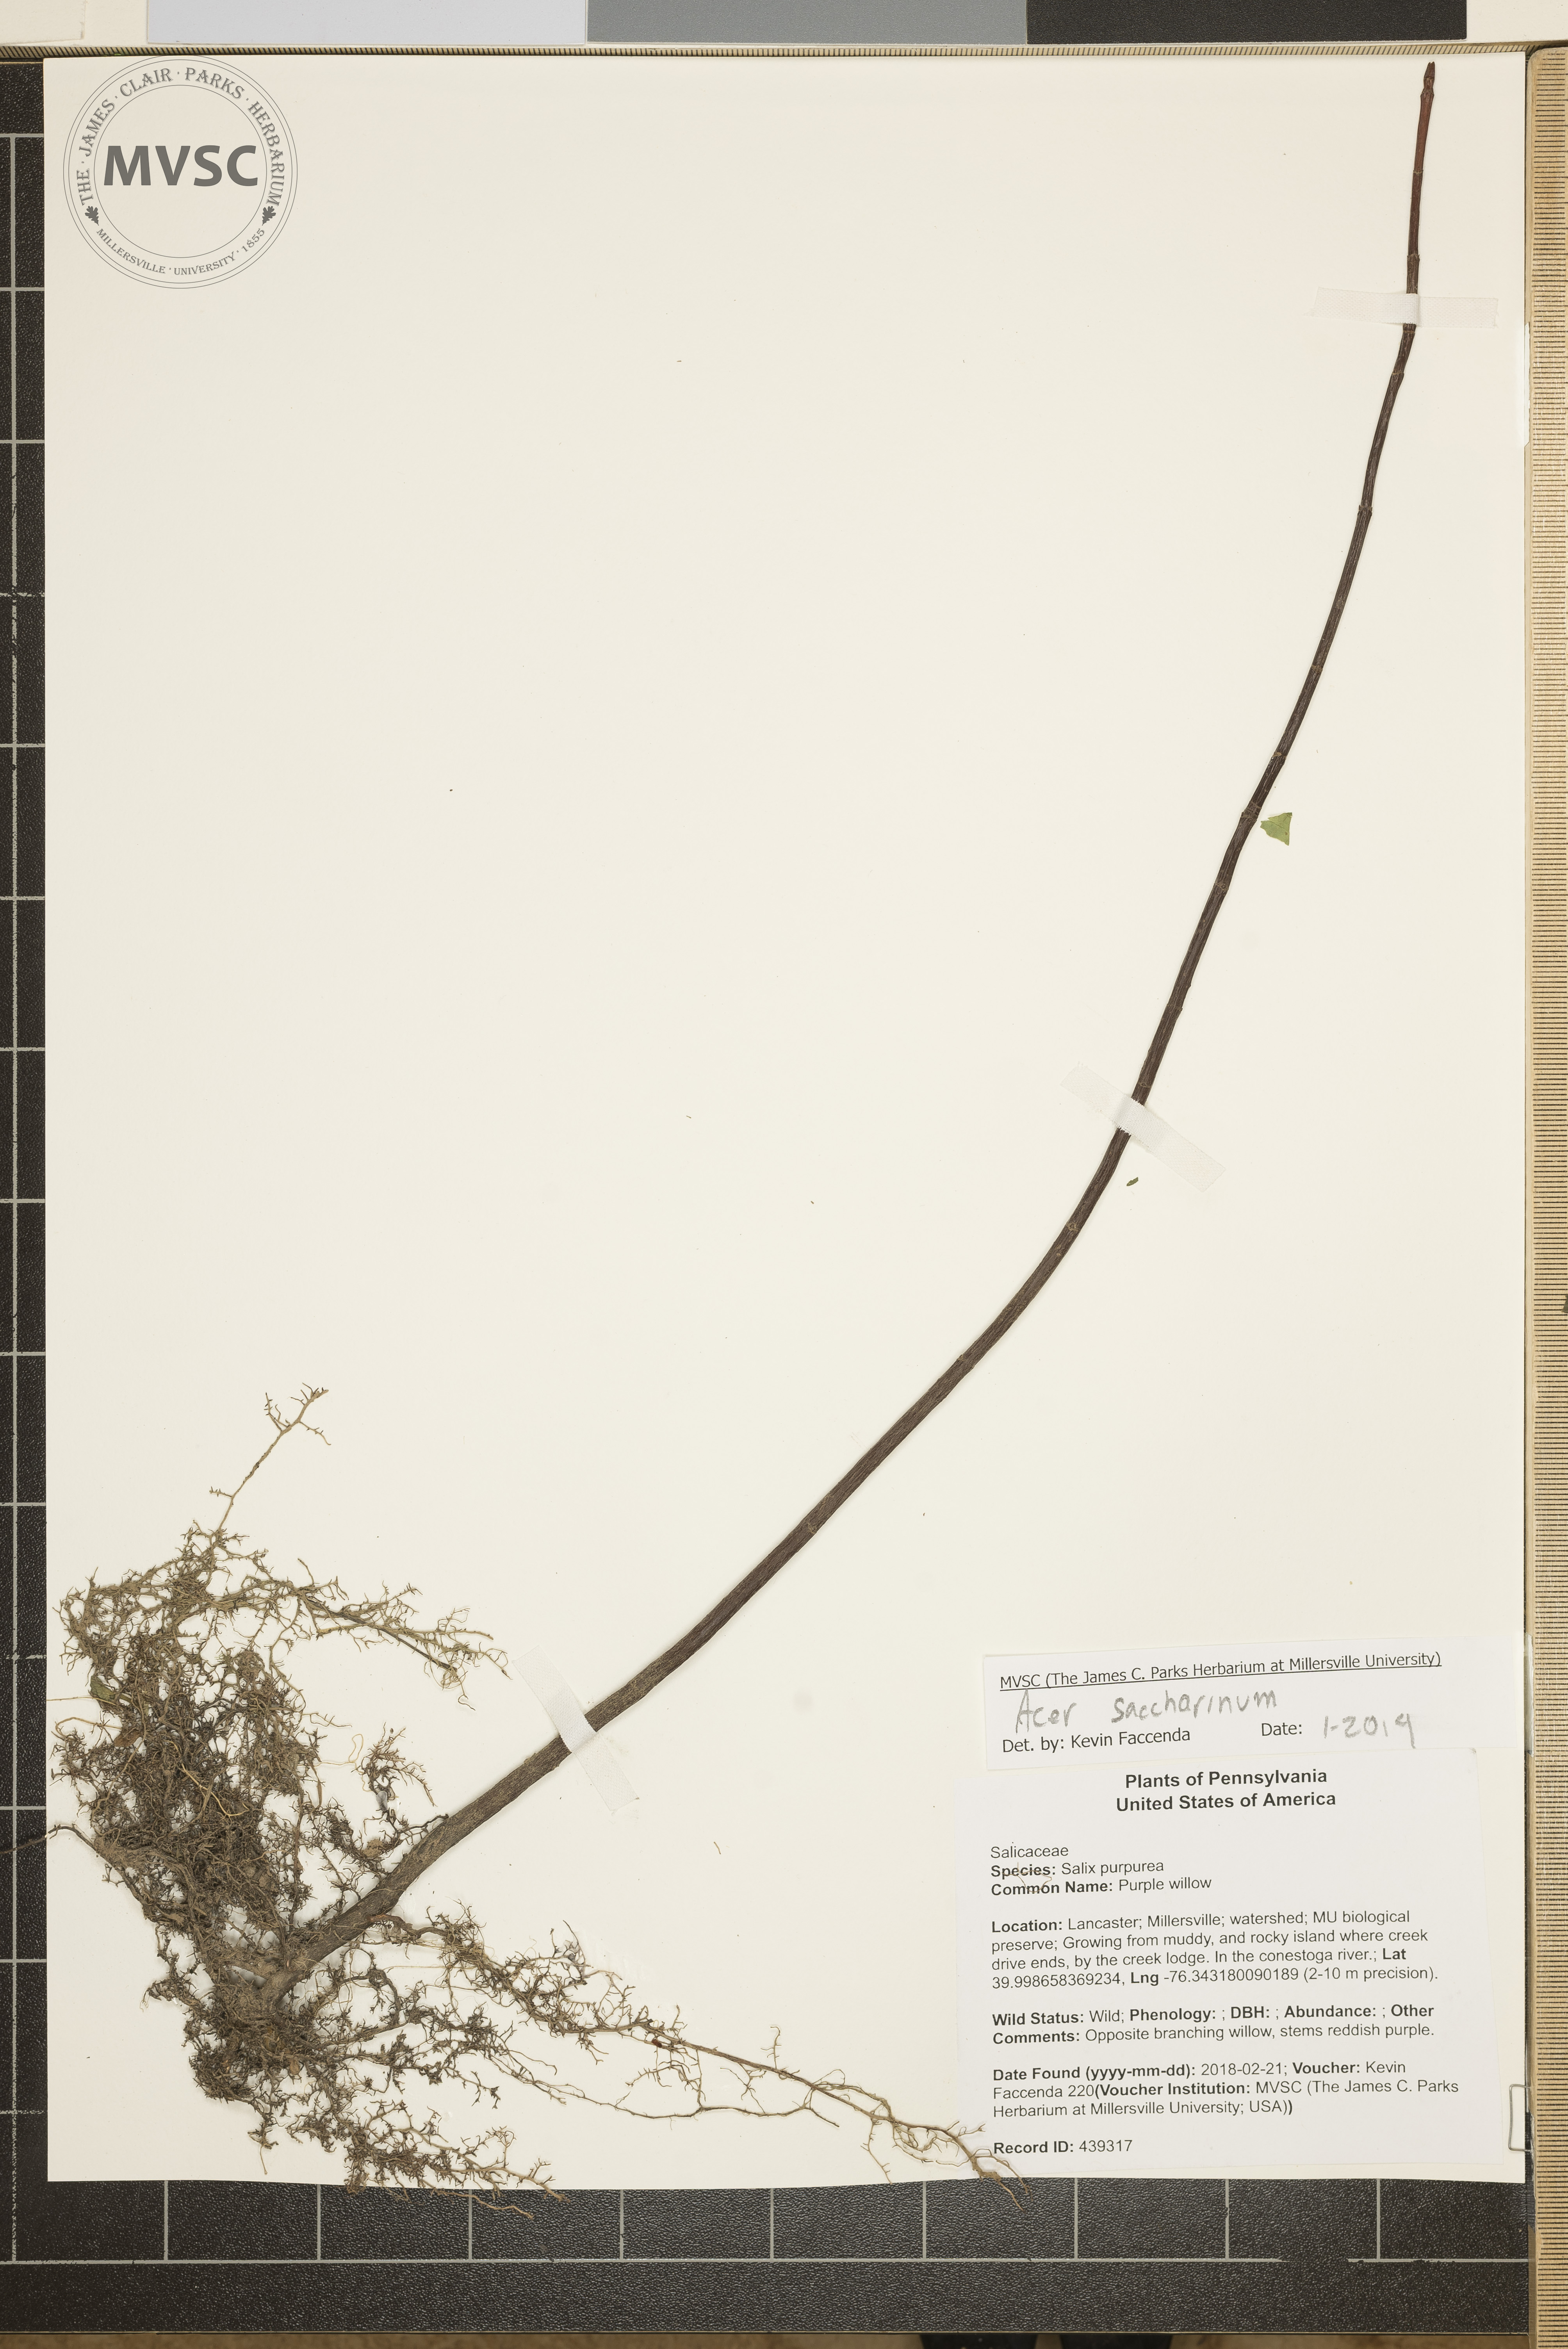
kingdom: Plantae
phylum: Tracheophyta
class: Magnoliopsida
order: Sapindales
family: Sapindaceae
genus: Acer
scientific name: Acer saccharinum
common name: Silver maple
